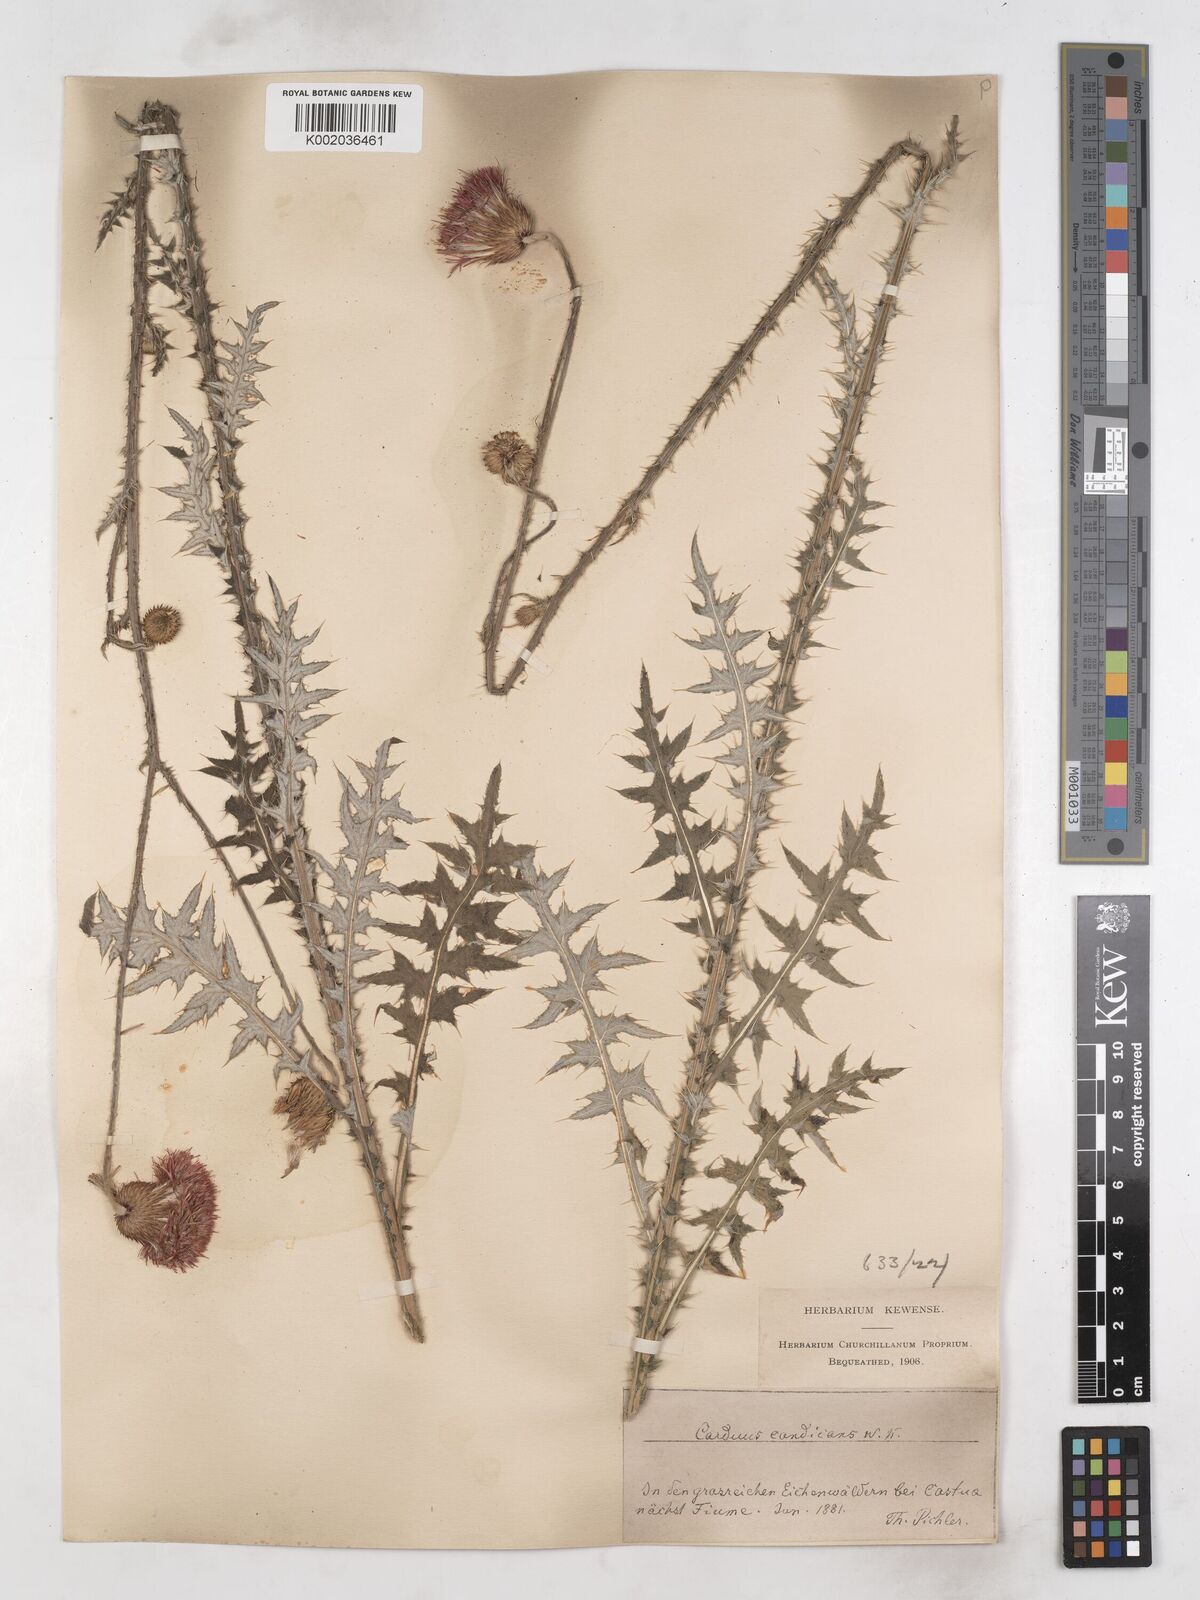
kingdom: Plantae
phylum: Tracheophyta
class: Magnoliopsida
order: Asterales
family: Asteraceae
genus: Carduus
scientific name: Carduus candicans
